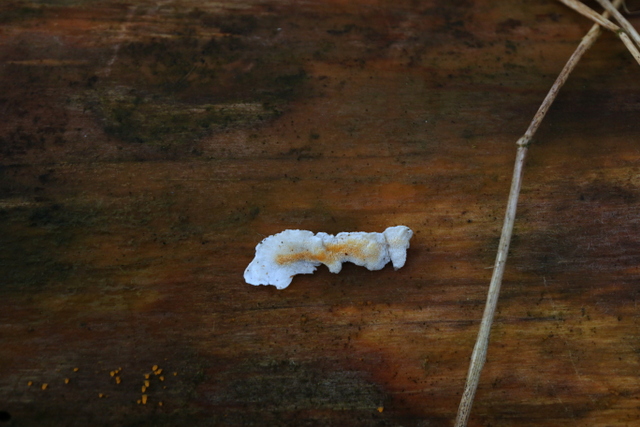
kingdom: Fungi
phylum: Basidiomycota
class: Agaricomycetes
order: Polyporales
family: Incrustoporiaceae
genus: Skeletocutis
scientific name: Skeletocutis amorpha
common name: orange krystalporesvamp
